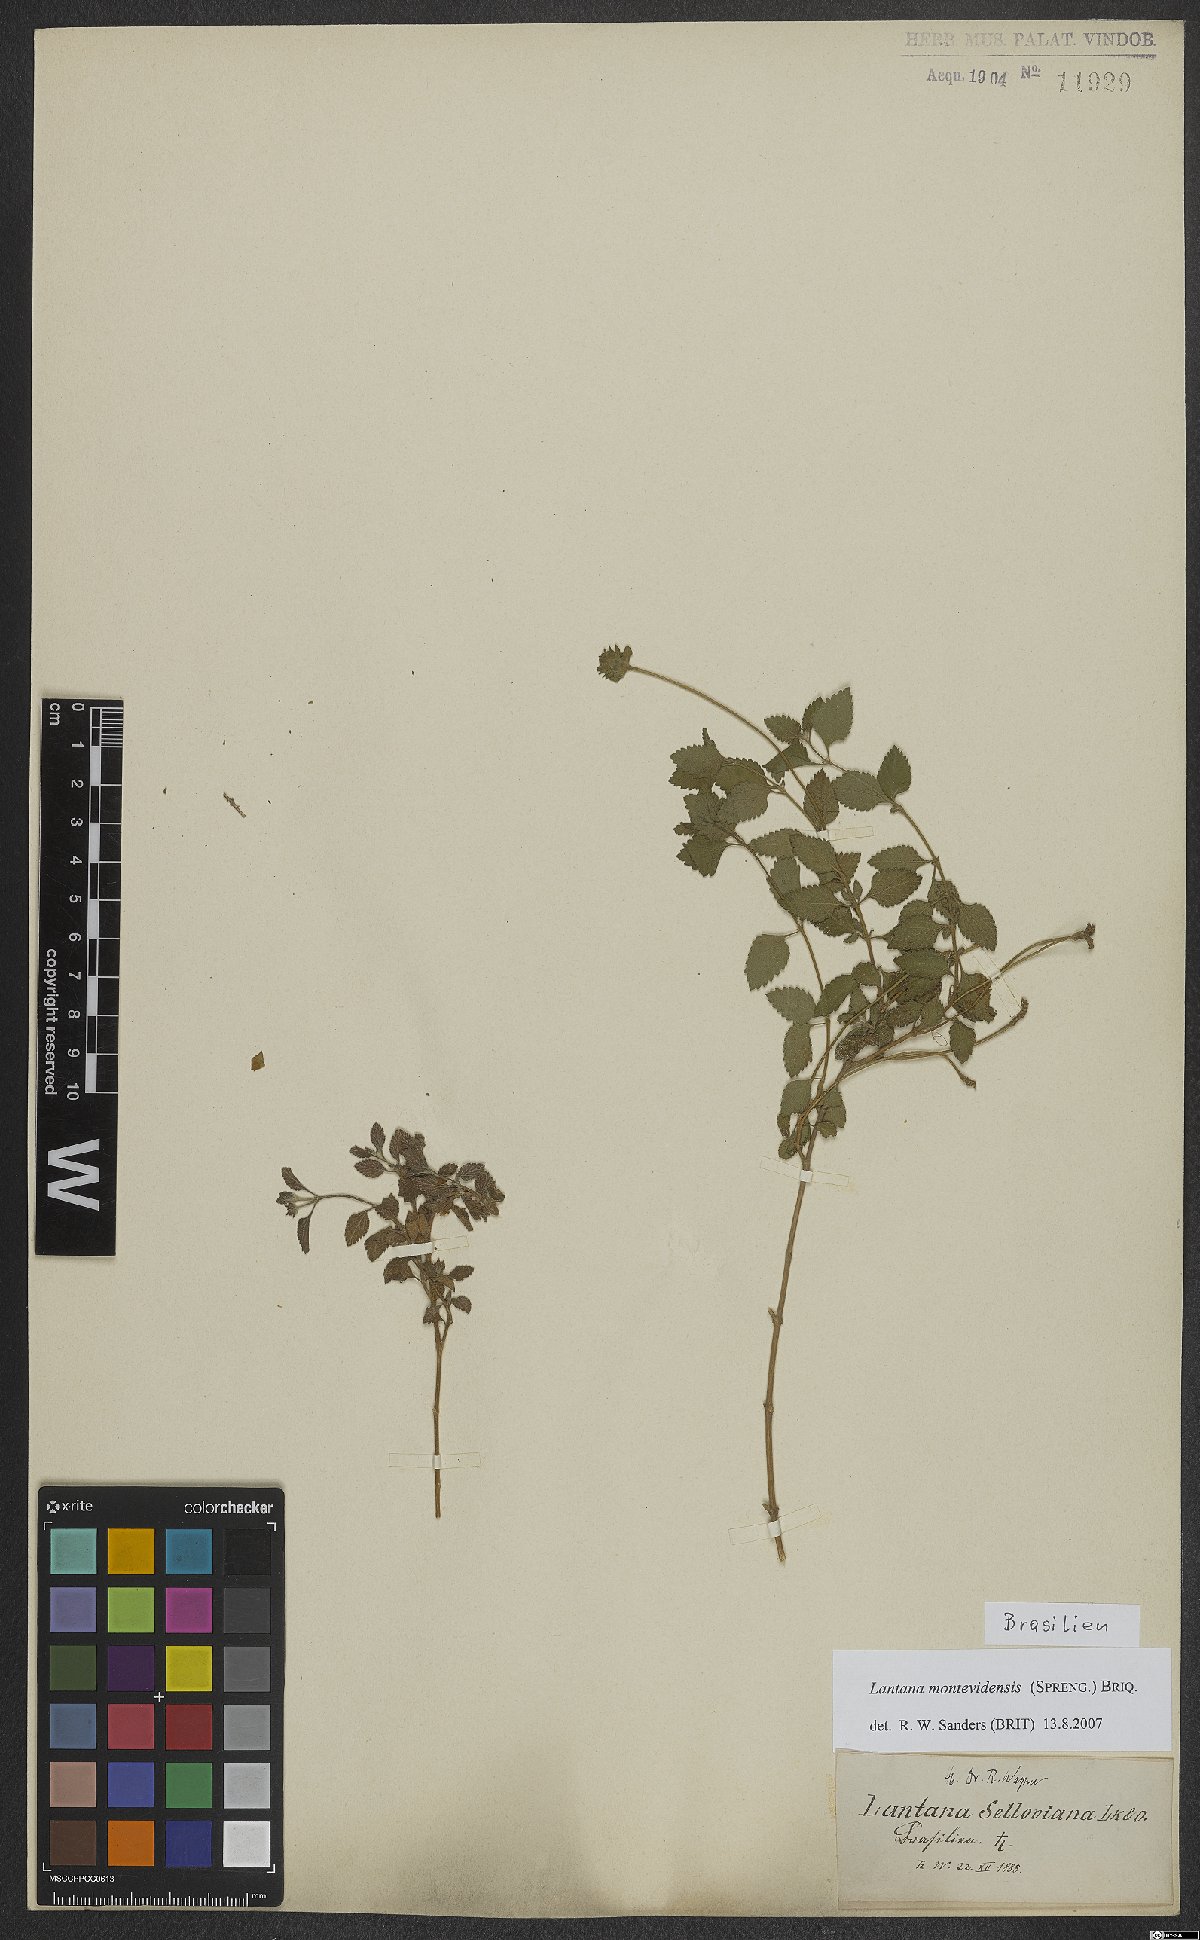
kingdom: Plantae
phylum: Tracheophyta
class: Magnoliopsida
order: Lamiales
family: Verbenaceae
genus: Lantana
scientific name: Lantana montevidensis
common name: Trailing shrubverbena
